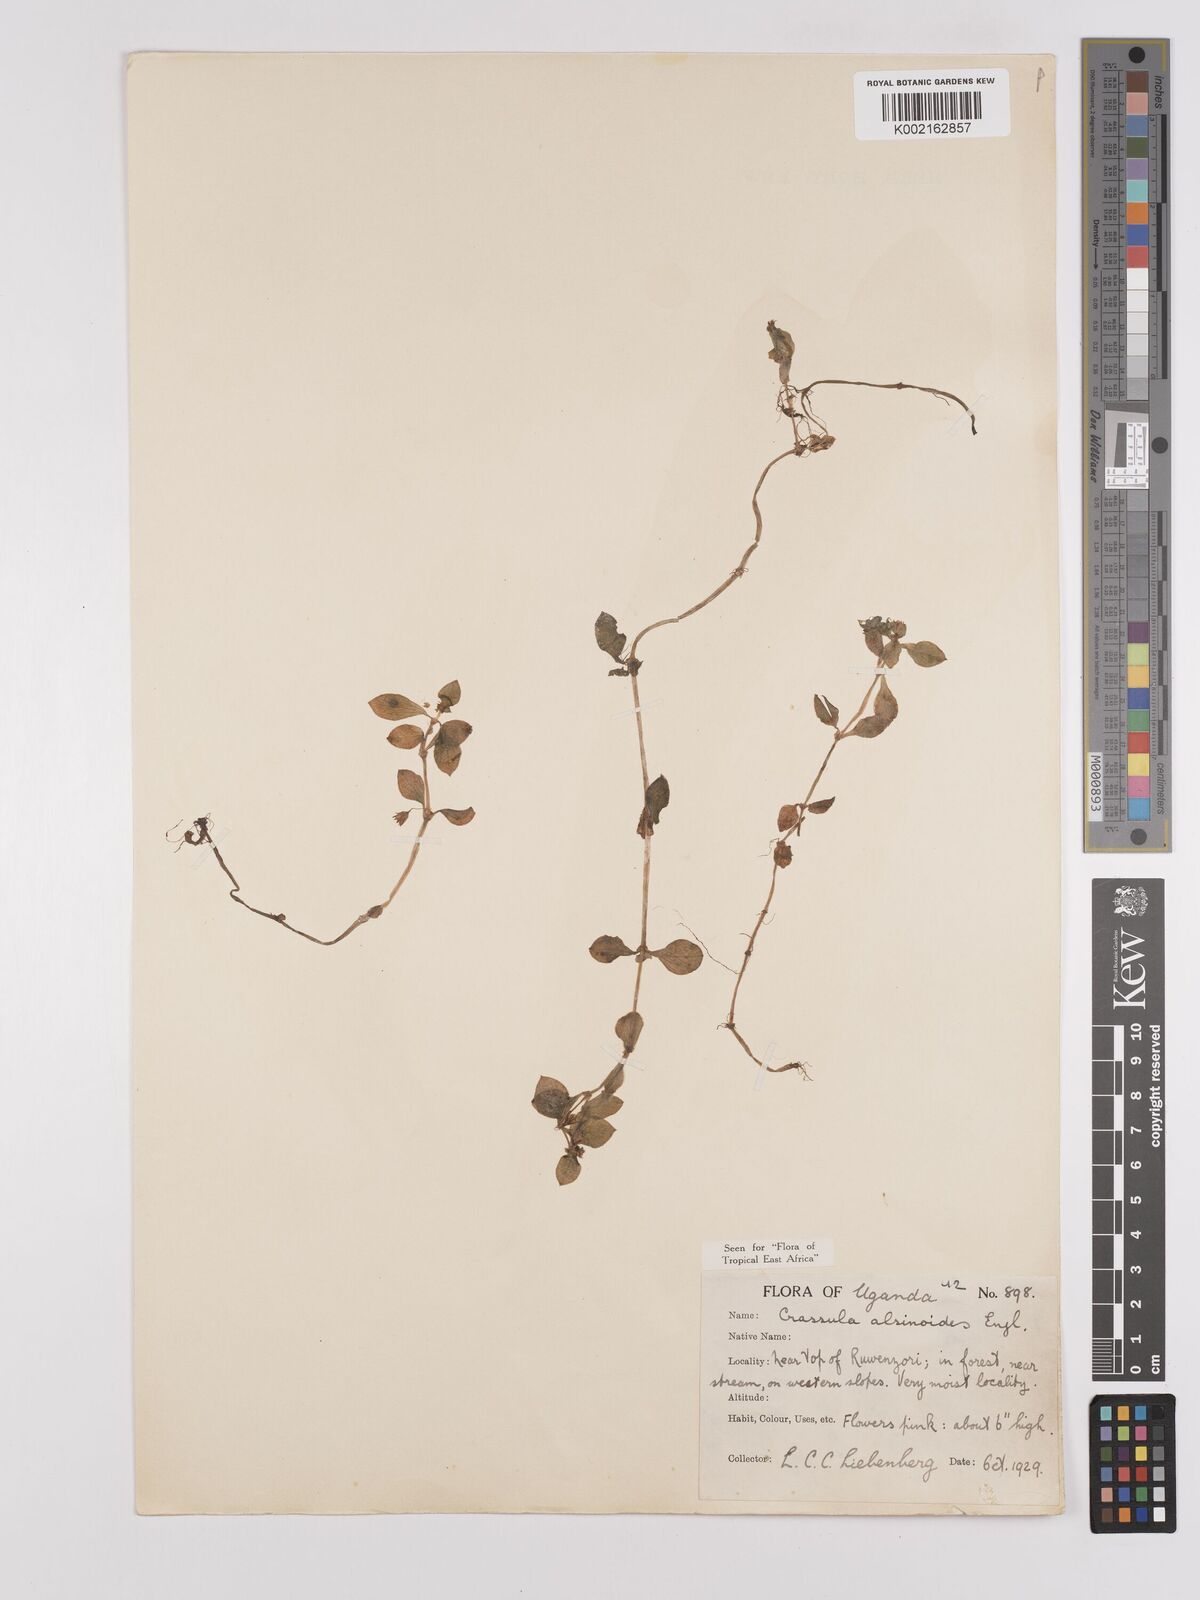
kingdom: Plantae
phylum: Tracheophyta
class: Magnoliopsida
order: Saxifragales
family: Crassulaceae
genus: Crassula
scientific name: Crassula alsinoides
